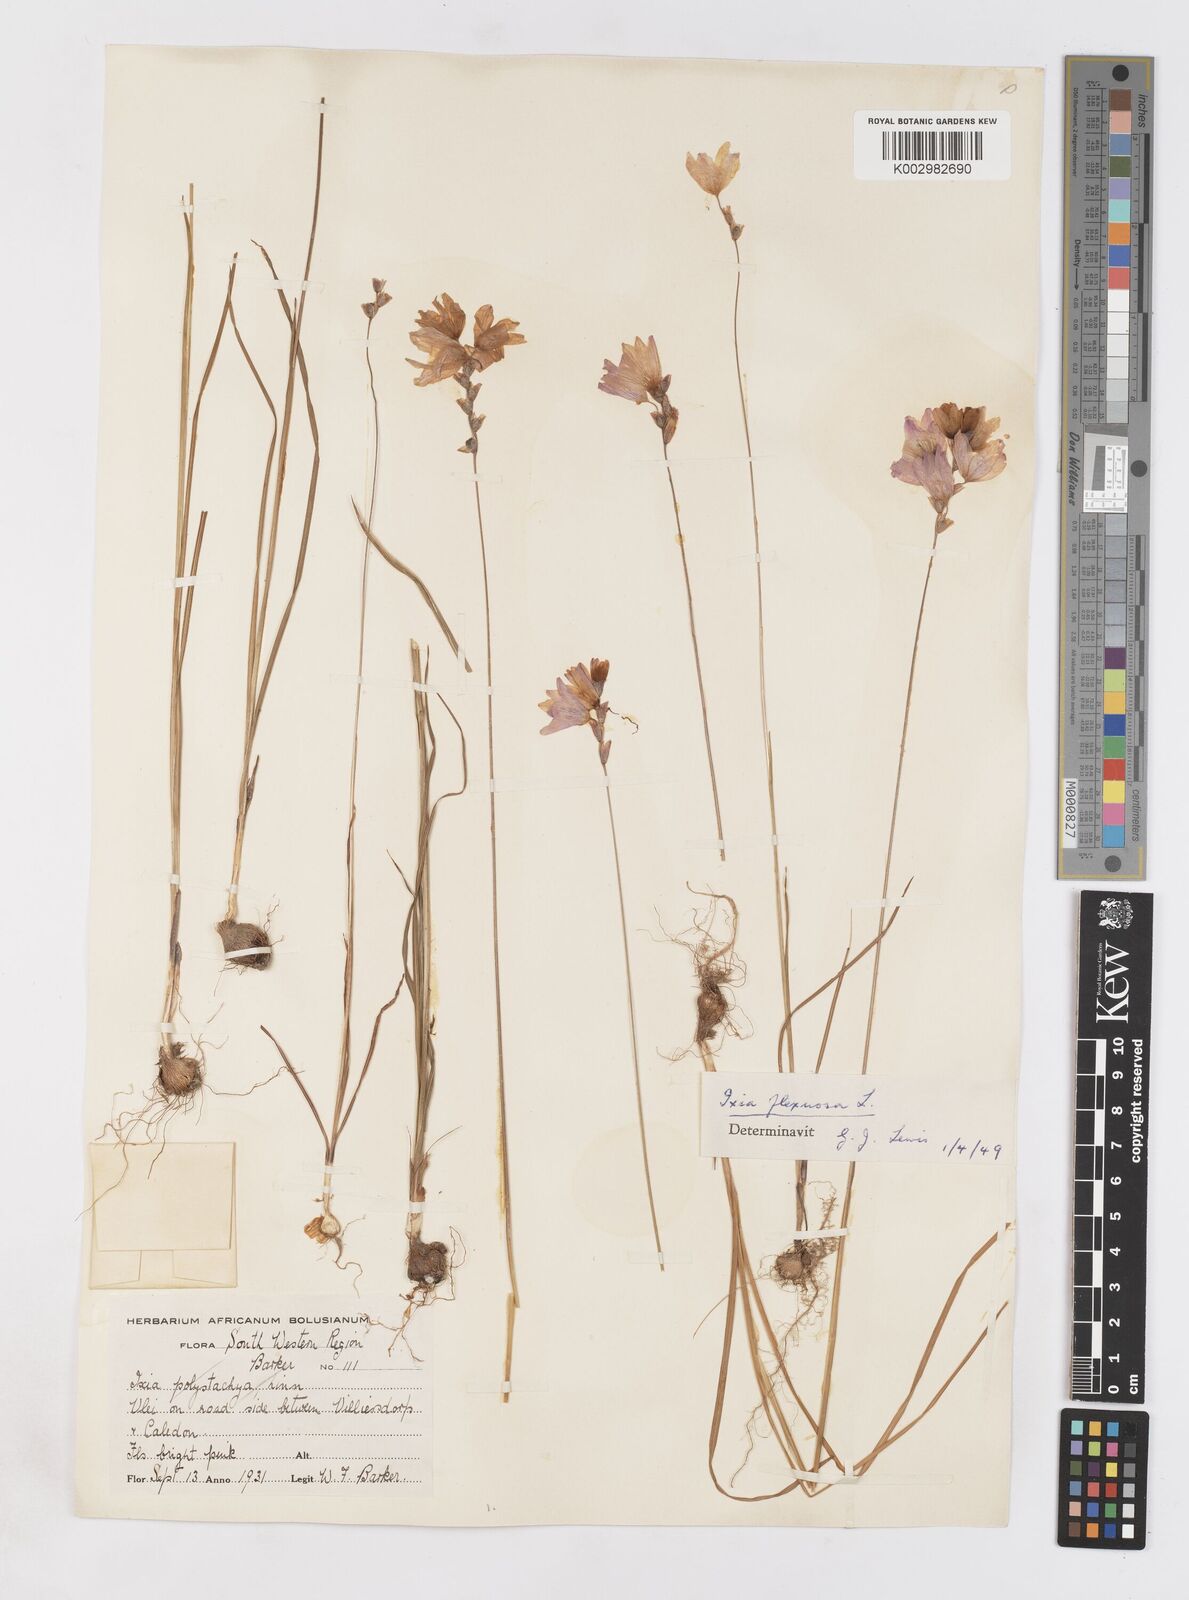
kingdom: Plantae
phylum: Tracheophyta
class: Liliopsida
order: Asparagales
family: Iridaceae
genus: Ixia
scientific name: Ixia flexuosa
